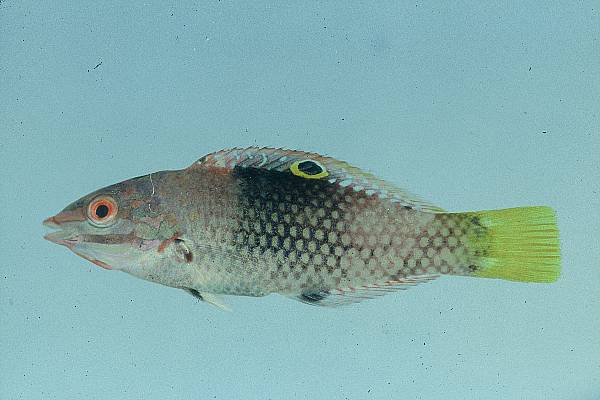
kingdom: Animalia
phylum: Chordata
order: Perciformes
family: Labridae
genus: Halichoeres
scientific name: Halichoeres hortulanus
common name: Checkerboard wrasse
